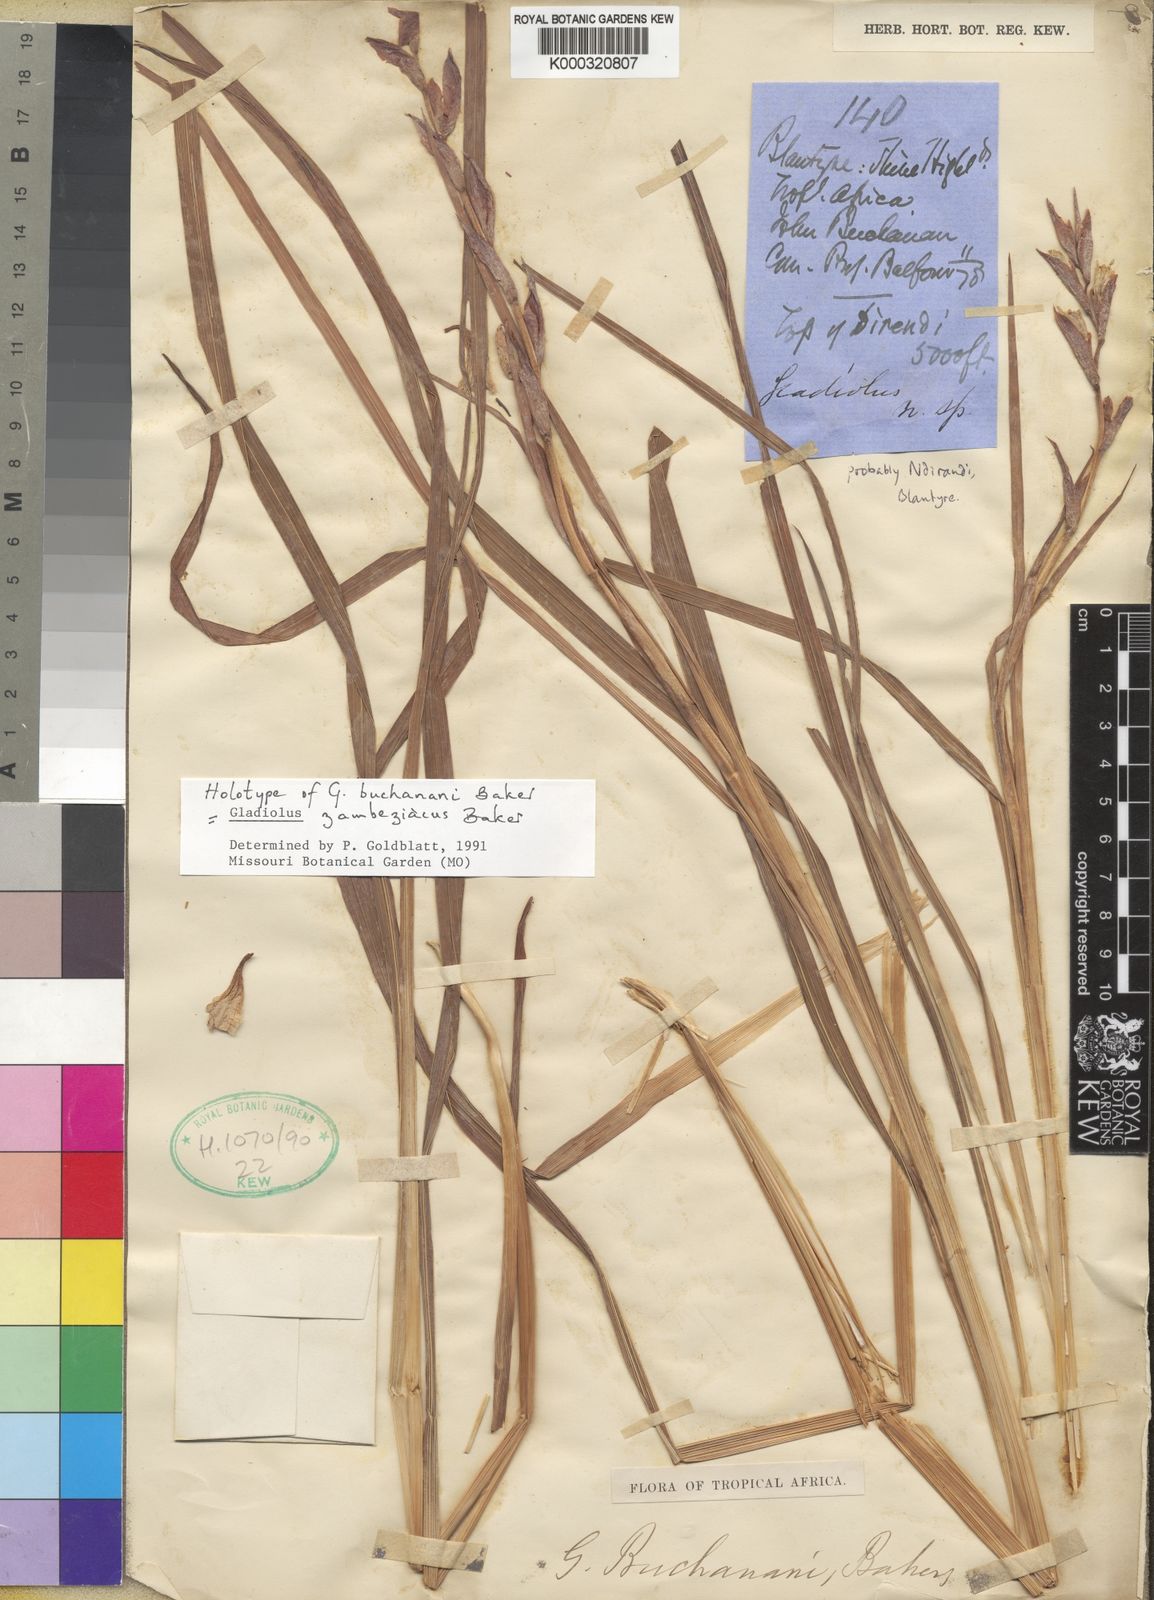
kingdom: Plantae
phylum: Tracheophyta
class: Liliopsida
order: Asparagales
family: Iridaceae
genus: Gladiolus
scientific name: Gladiolus zambesiacus
